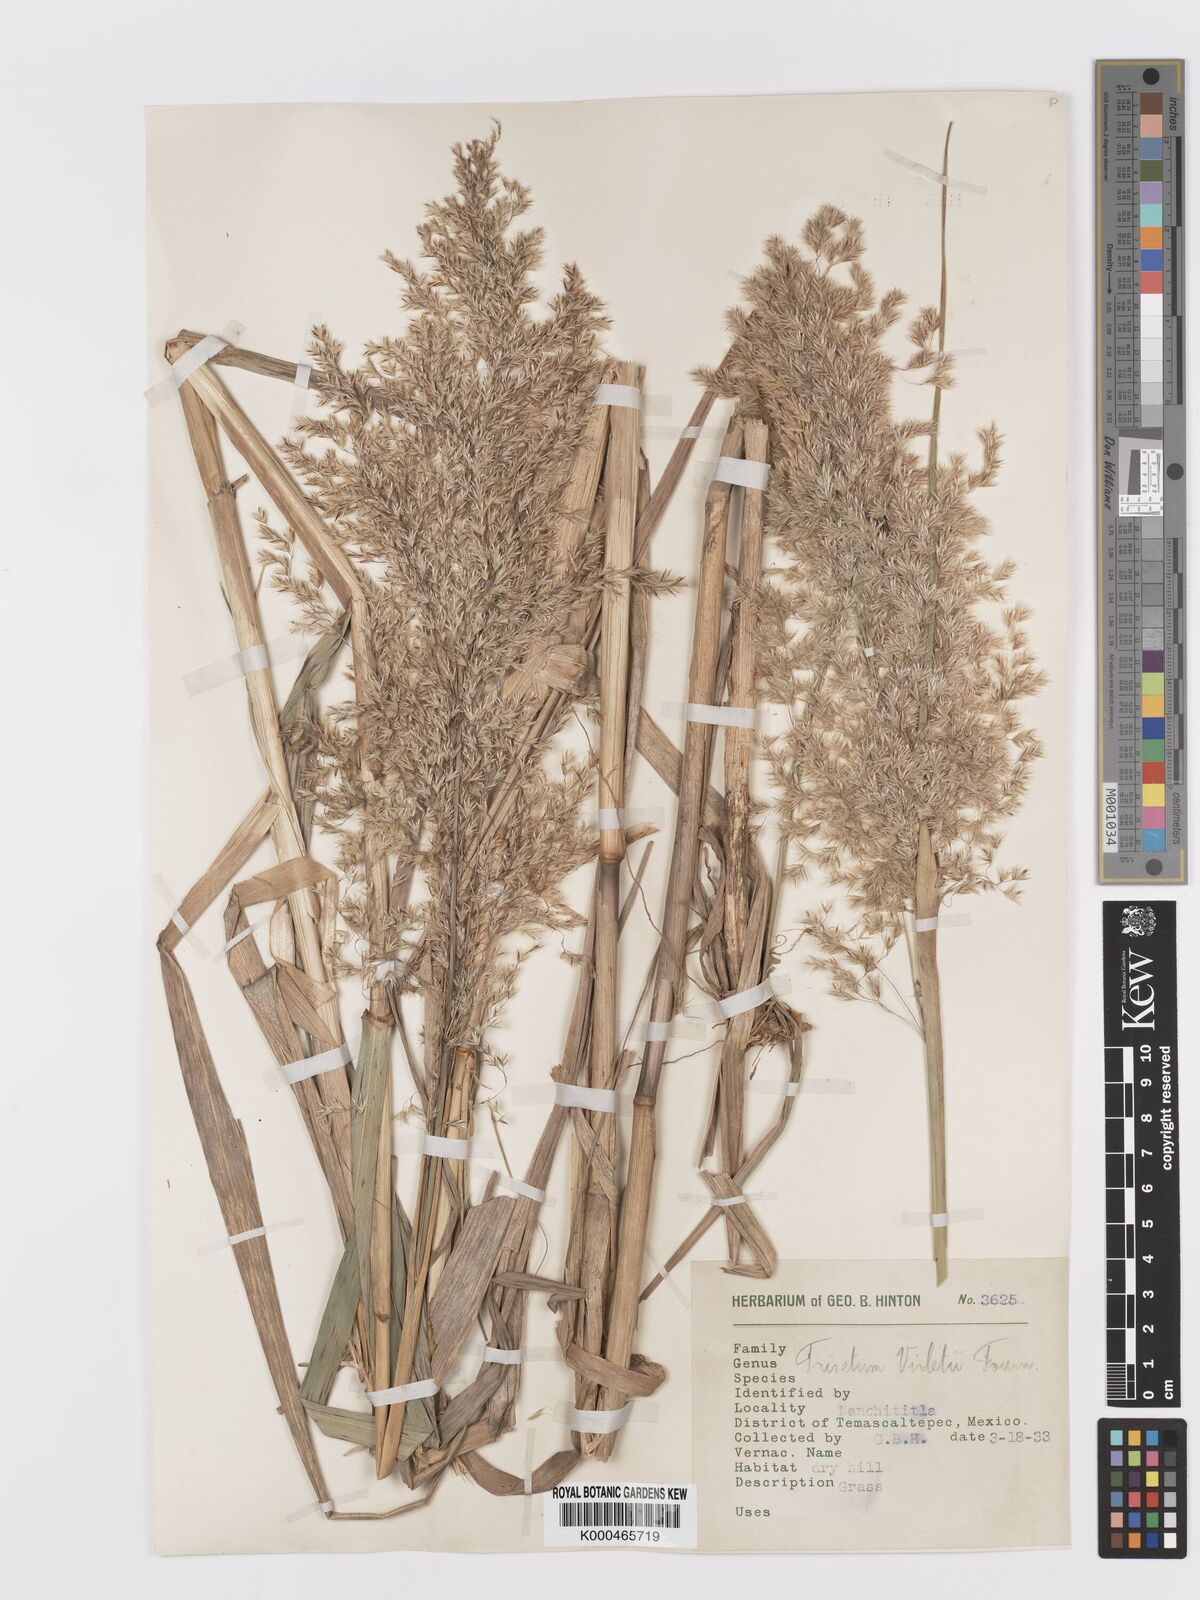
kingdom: Plantae
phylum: Tracheophyta
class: Liliopsida
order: Poales
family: Poaceae
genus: Peyritschia
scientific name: Peyritschia virletii
